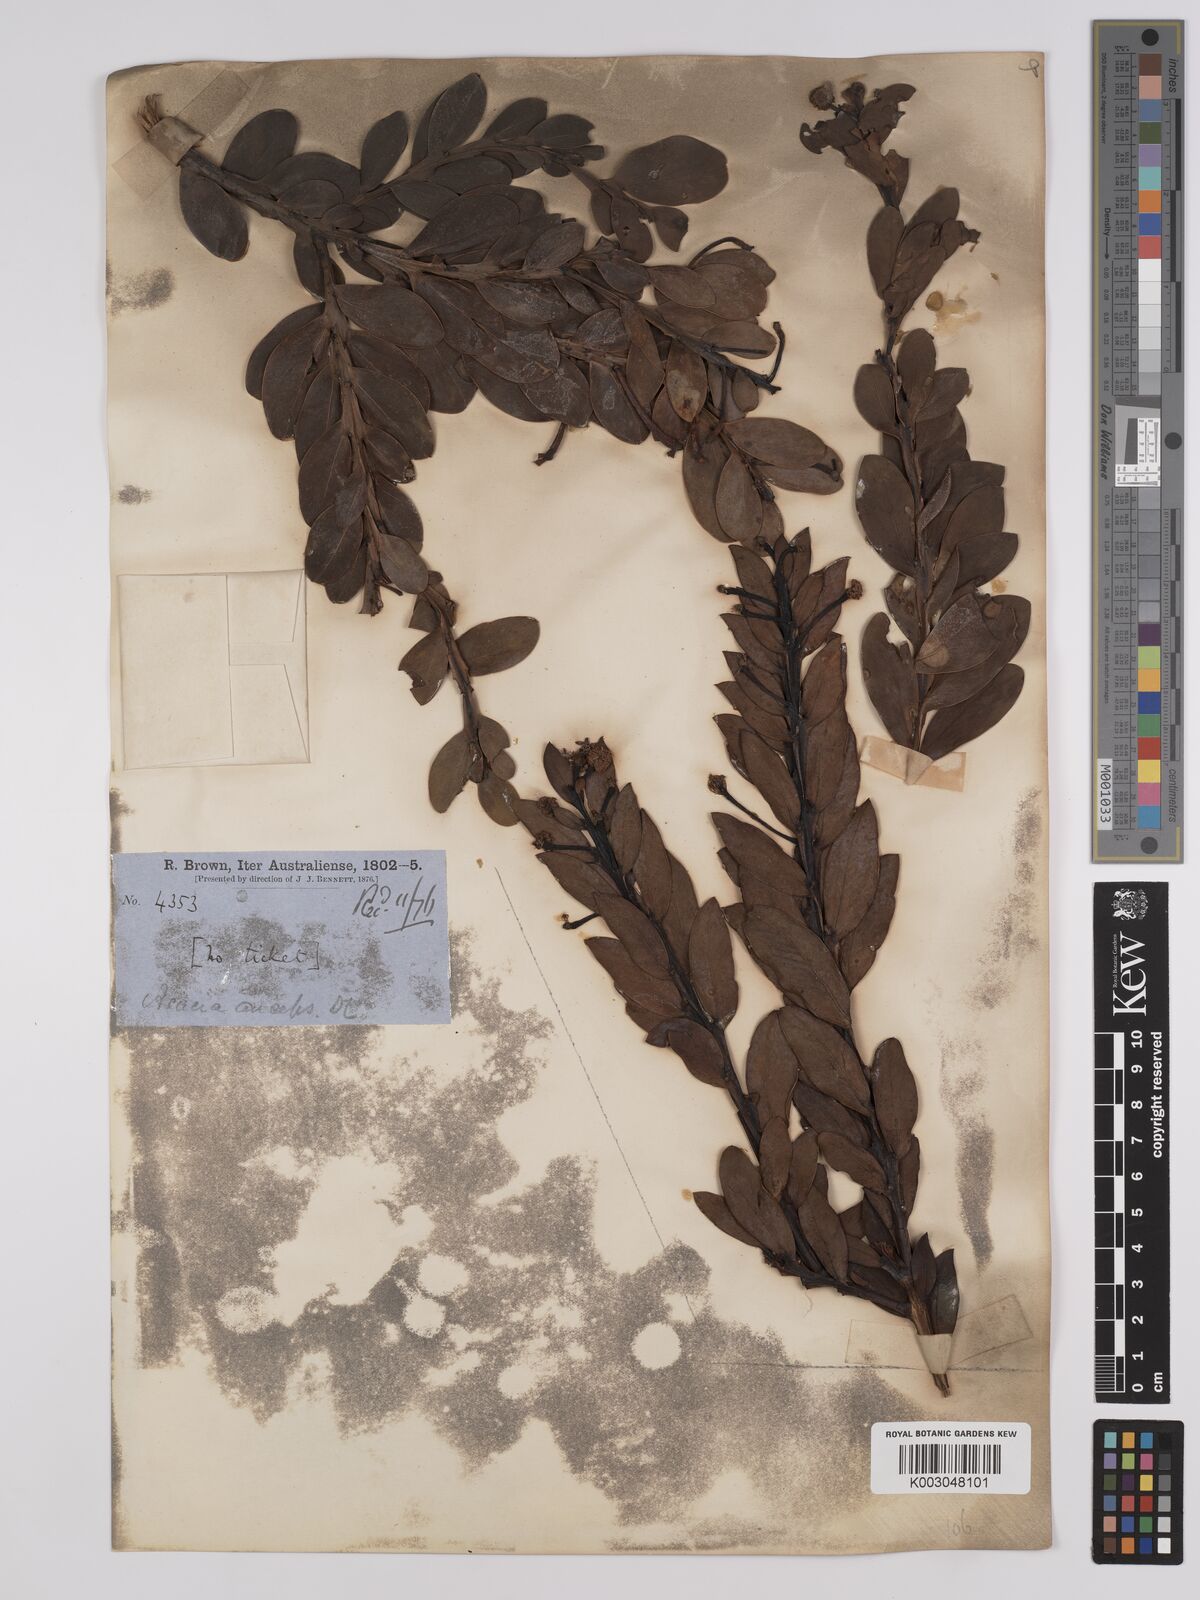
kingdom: Plantae
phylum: Tracheophyta
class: Magnoliopsida
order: Fabales
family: Fabaceae
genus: Acacia
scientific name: Acacia anceps
